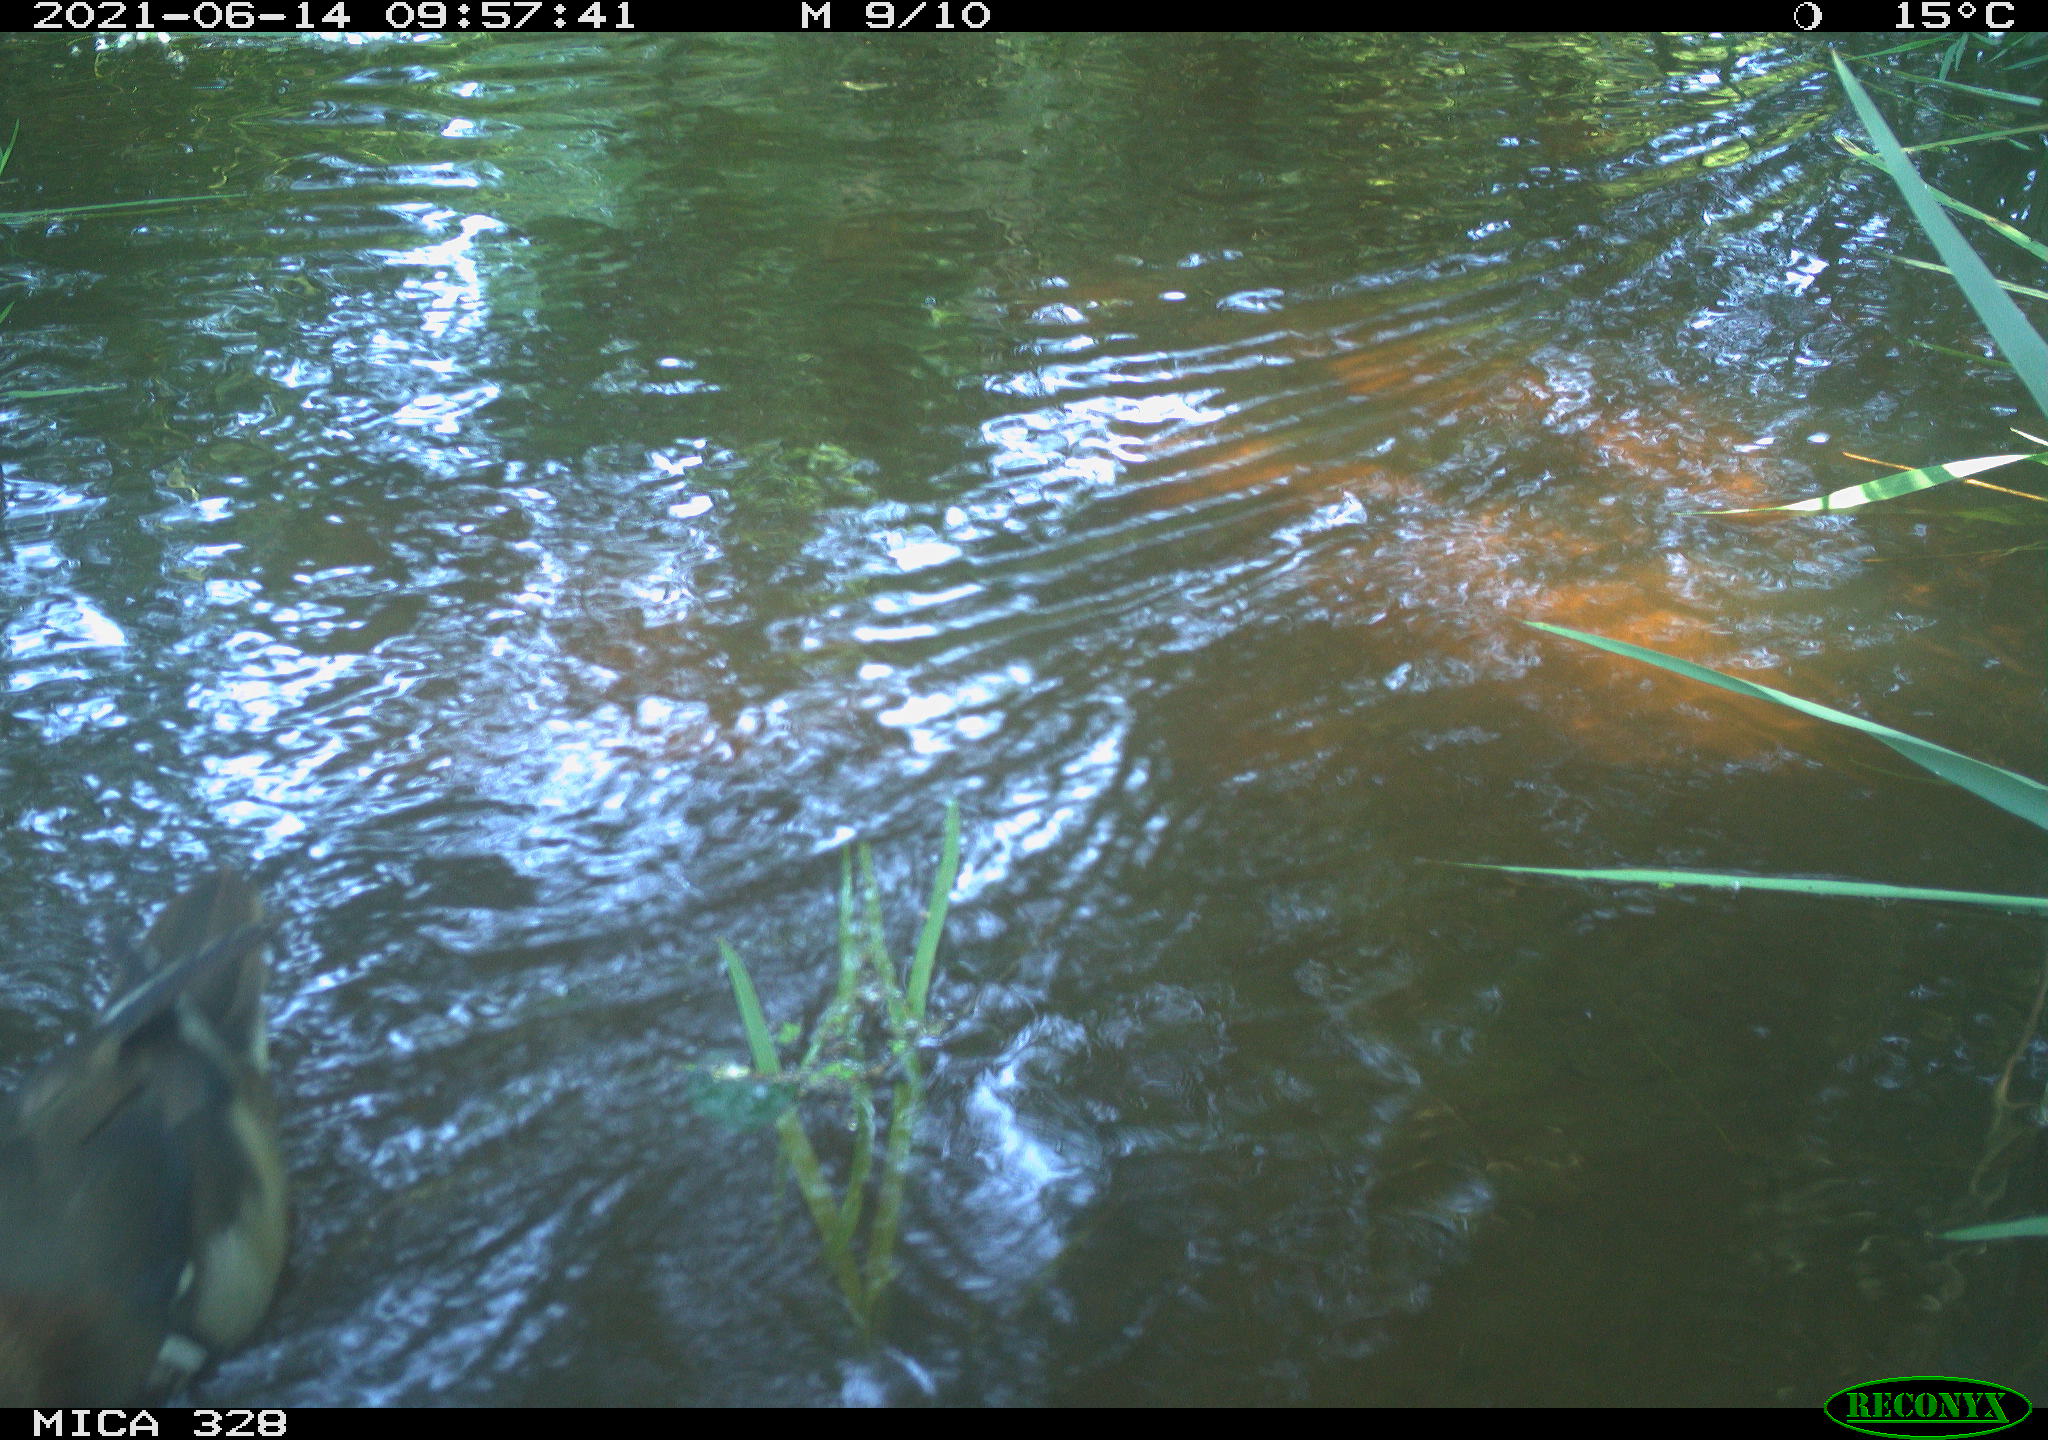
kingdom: Animalia
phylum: Chordata
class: Aves
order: Anseriformes
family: Anatidae
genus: Aix
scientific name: Aix galericulata
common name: Mandarin duck
